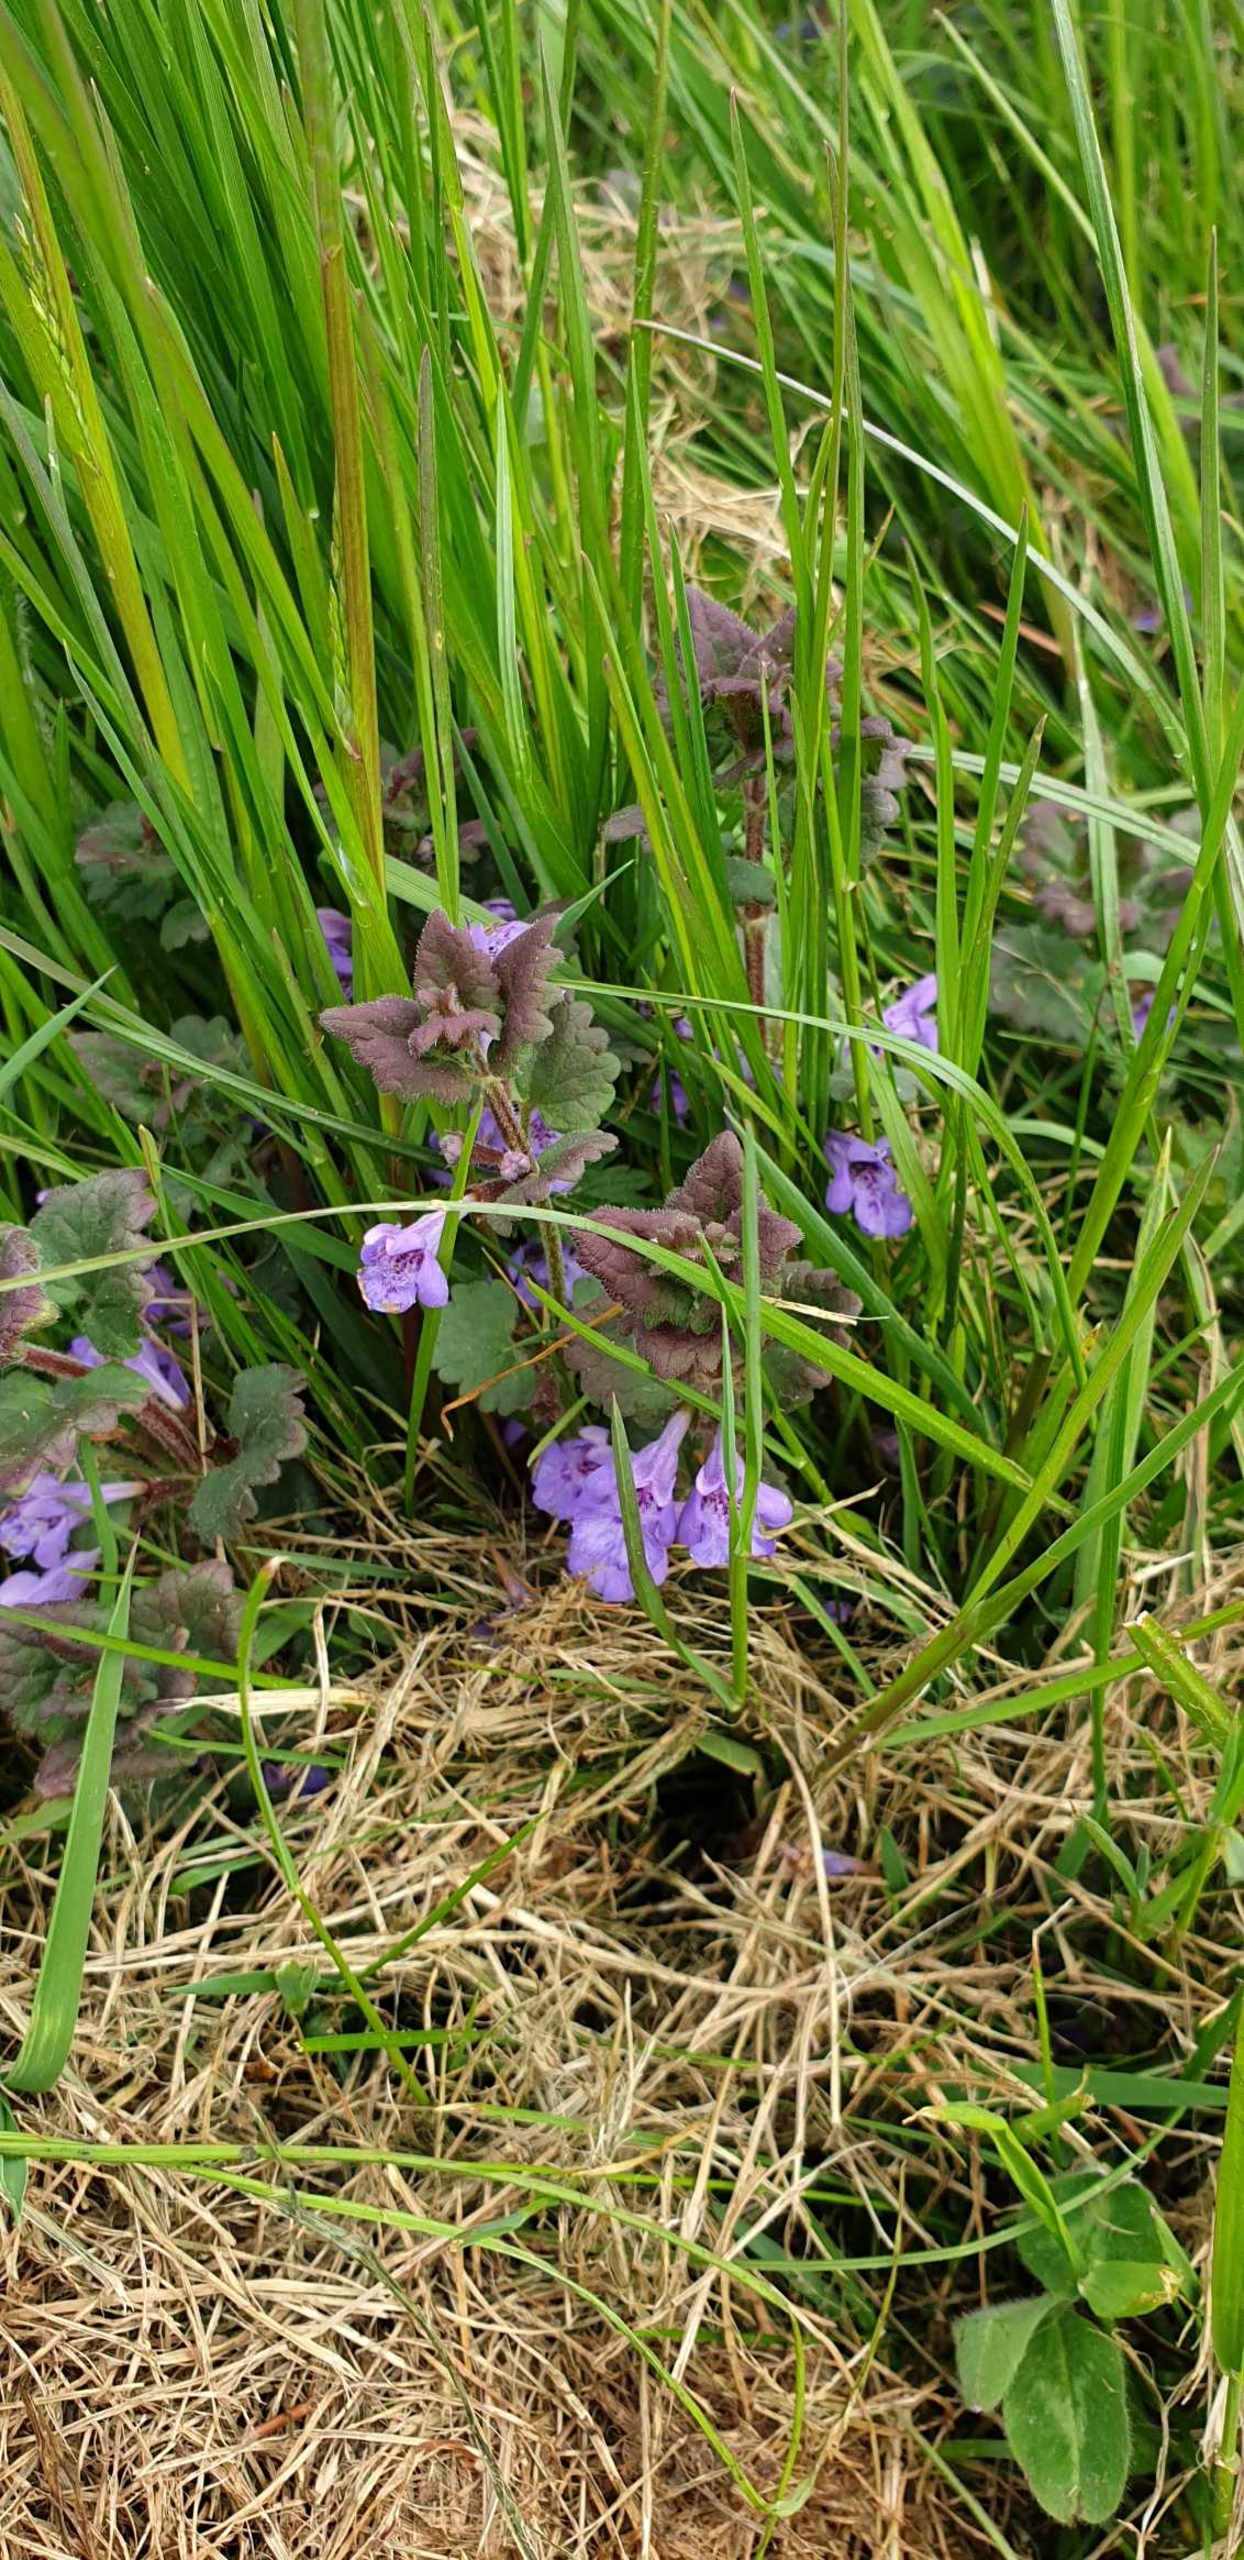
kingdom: Plantae
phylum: Tracheophyta
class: Magnoliopsida
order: Lamiales
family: Lamiaceae
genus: Glechoma
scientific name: Glechoma hederacea
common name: Korsknap
